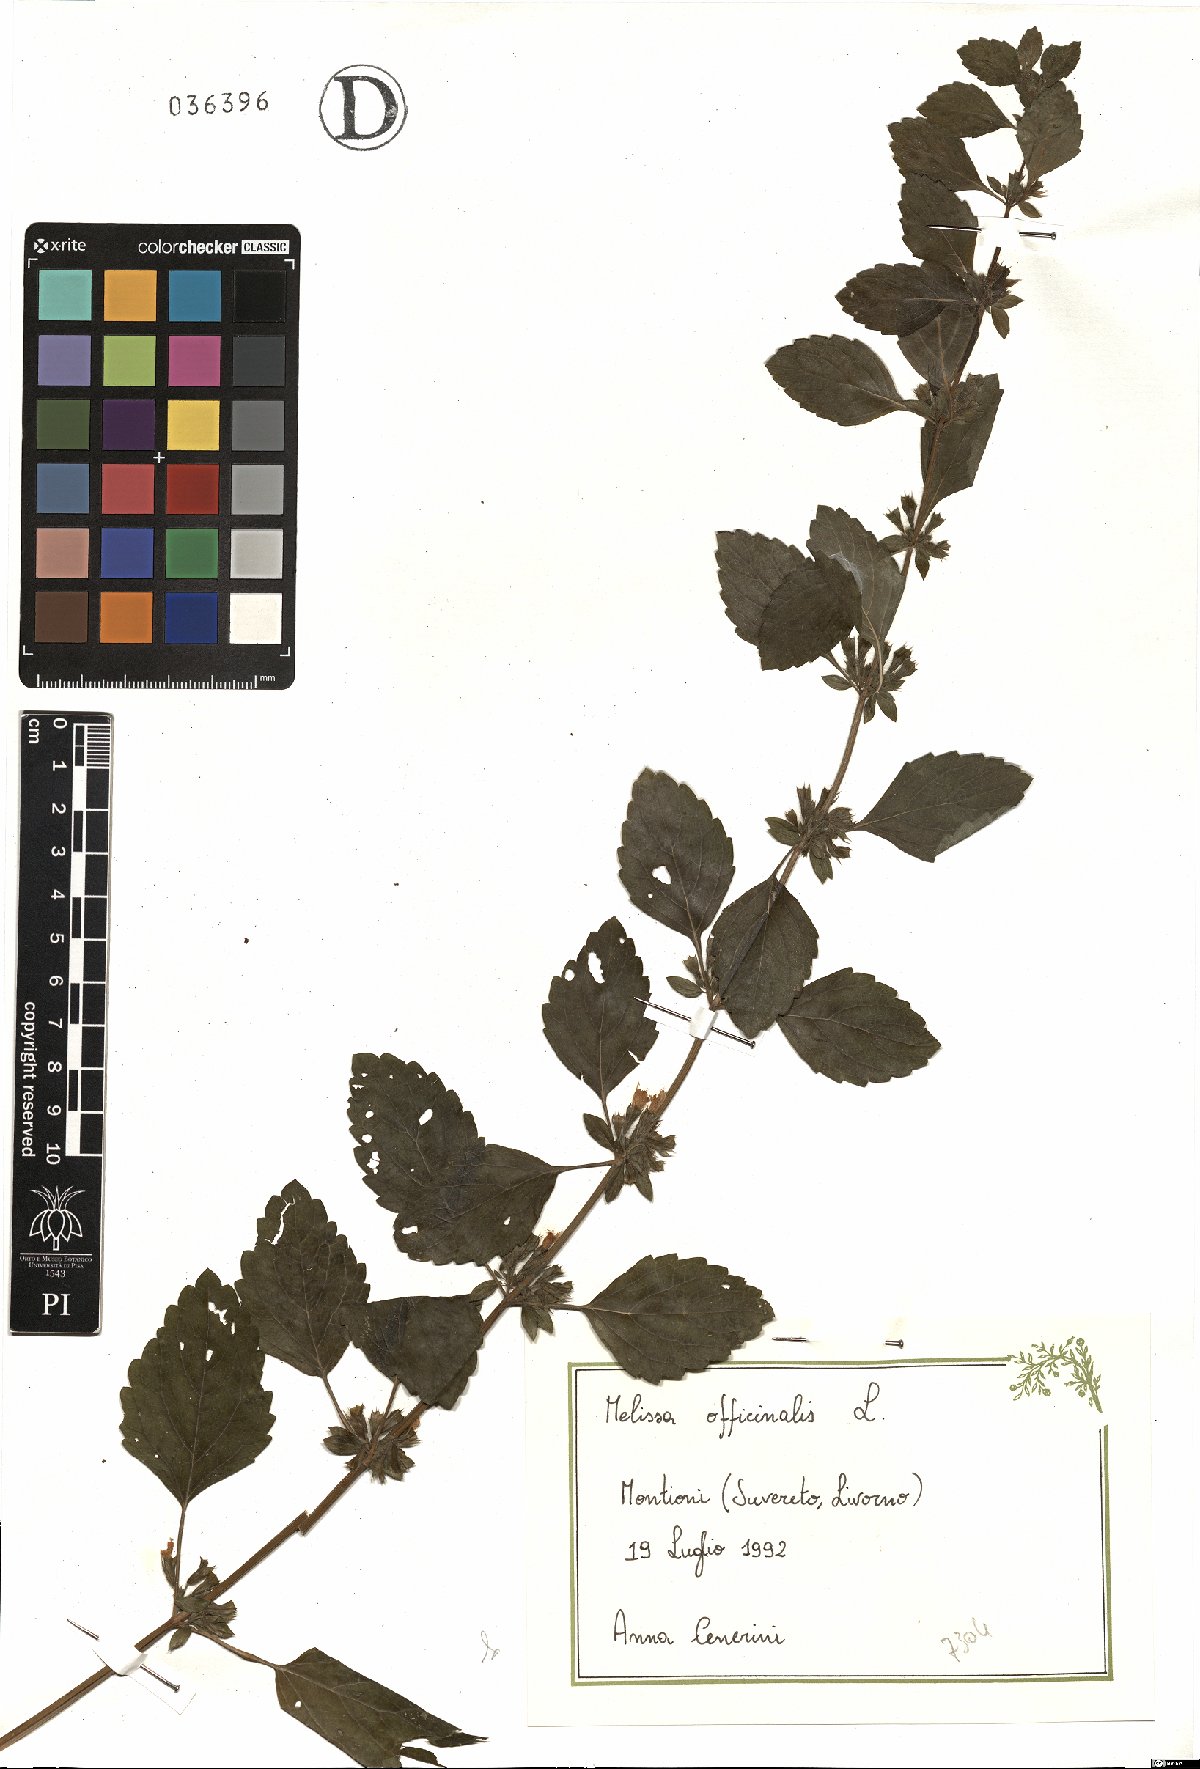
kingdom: Plantae
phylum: Tracheophyta
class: Magnoliopsida
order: Lamiales
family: Lamiaceae
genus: Melissa
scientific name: Melissa officinalis
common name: Balm
